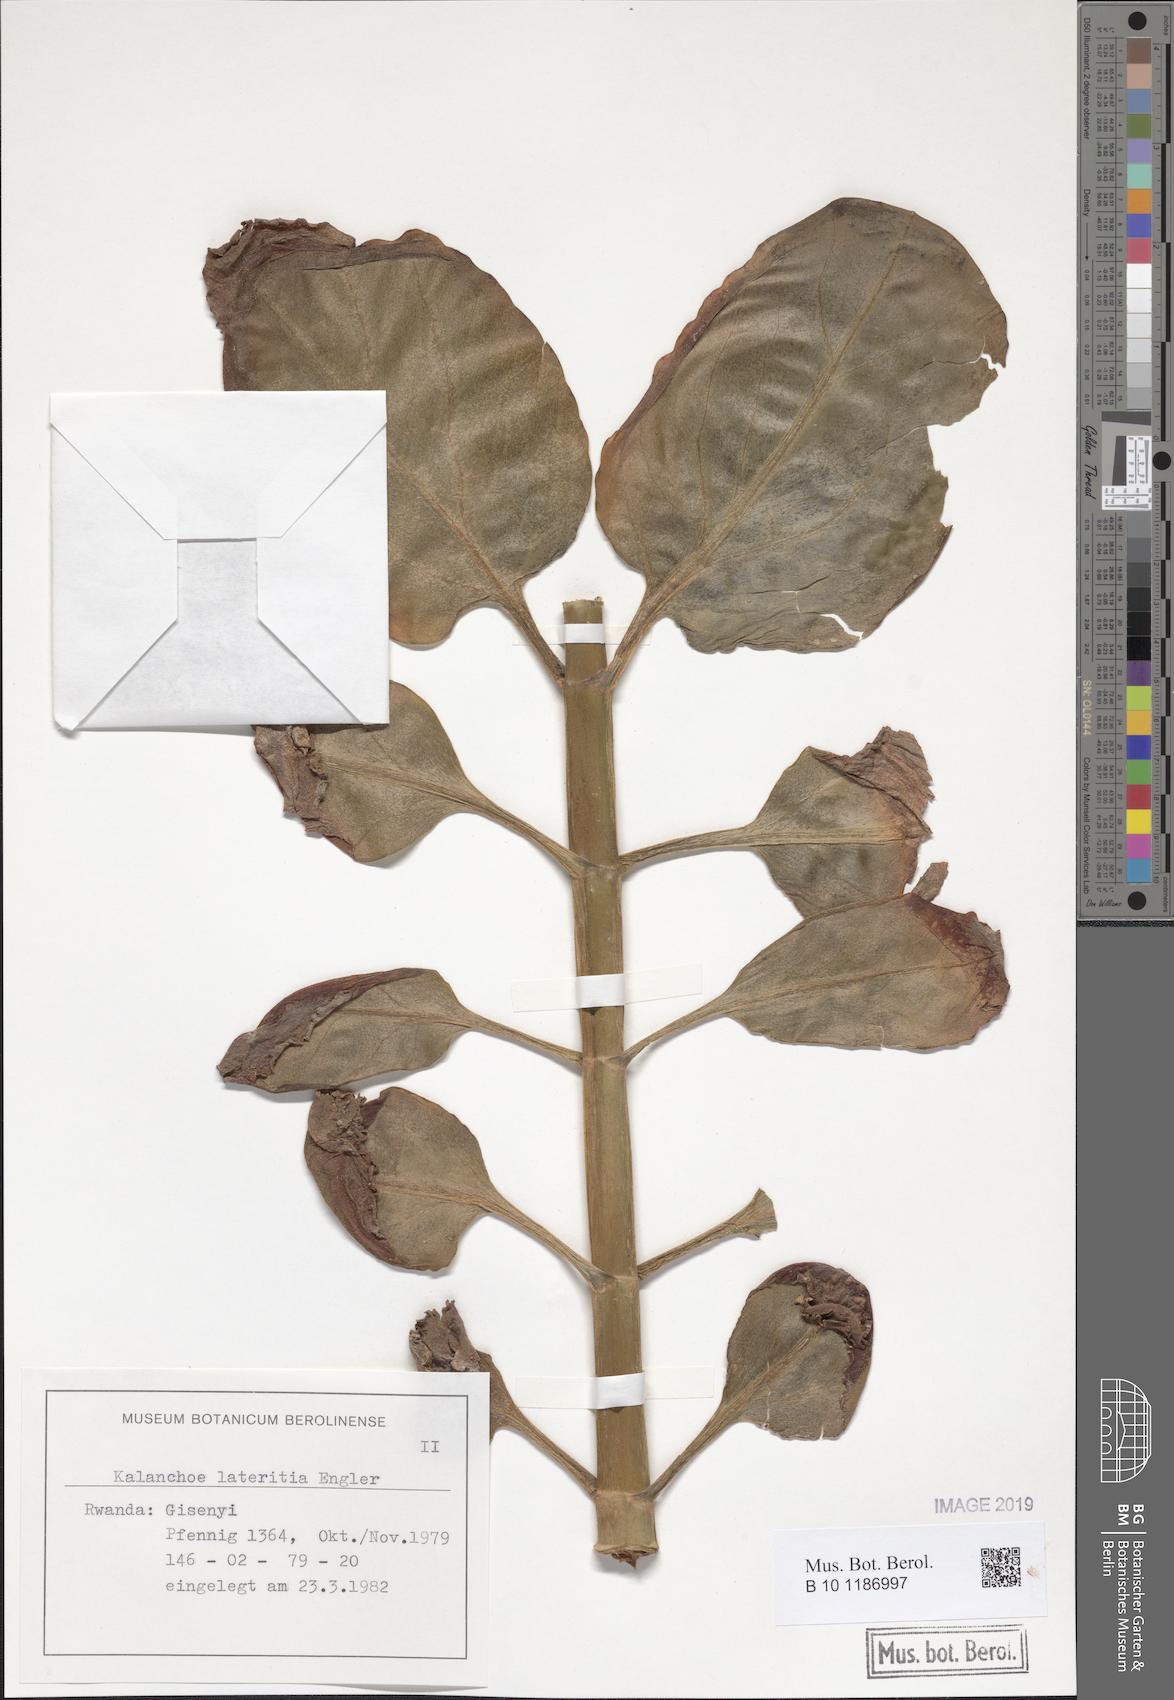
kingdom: Plantae
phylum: Tracheophyta
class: Magnoliopsida
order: Saxifragales
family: Crassulaceae
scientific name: Crassulaceae
